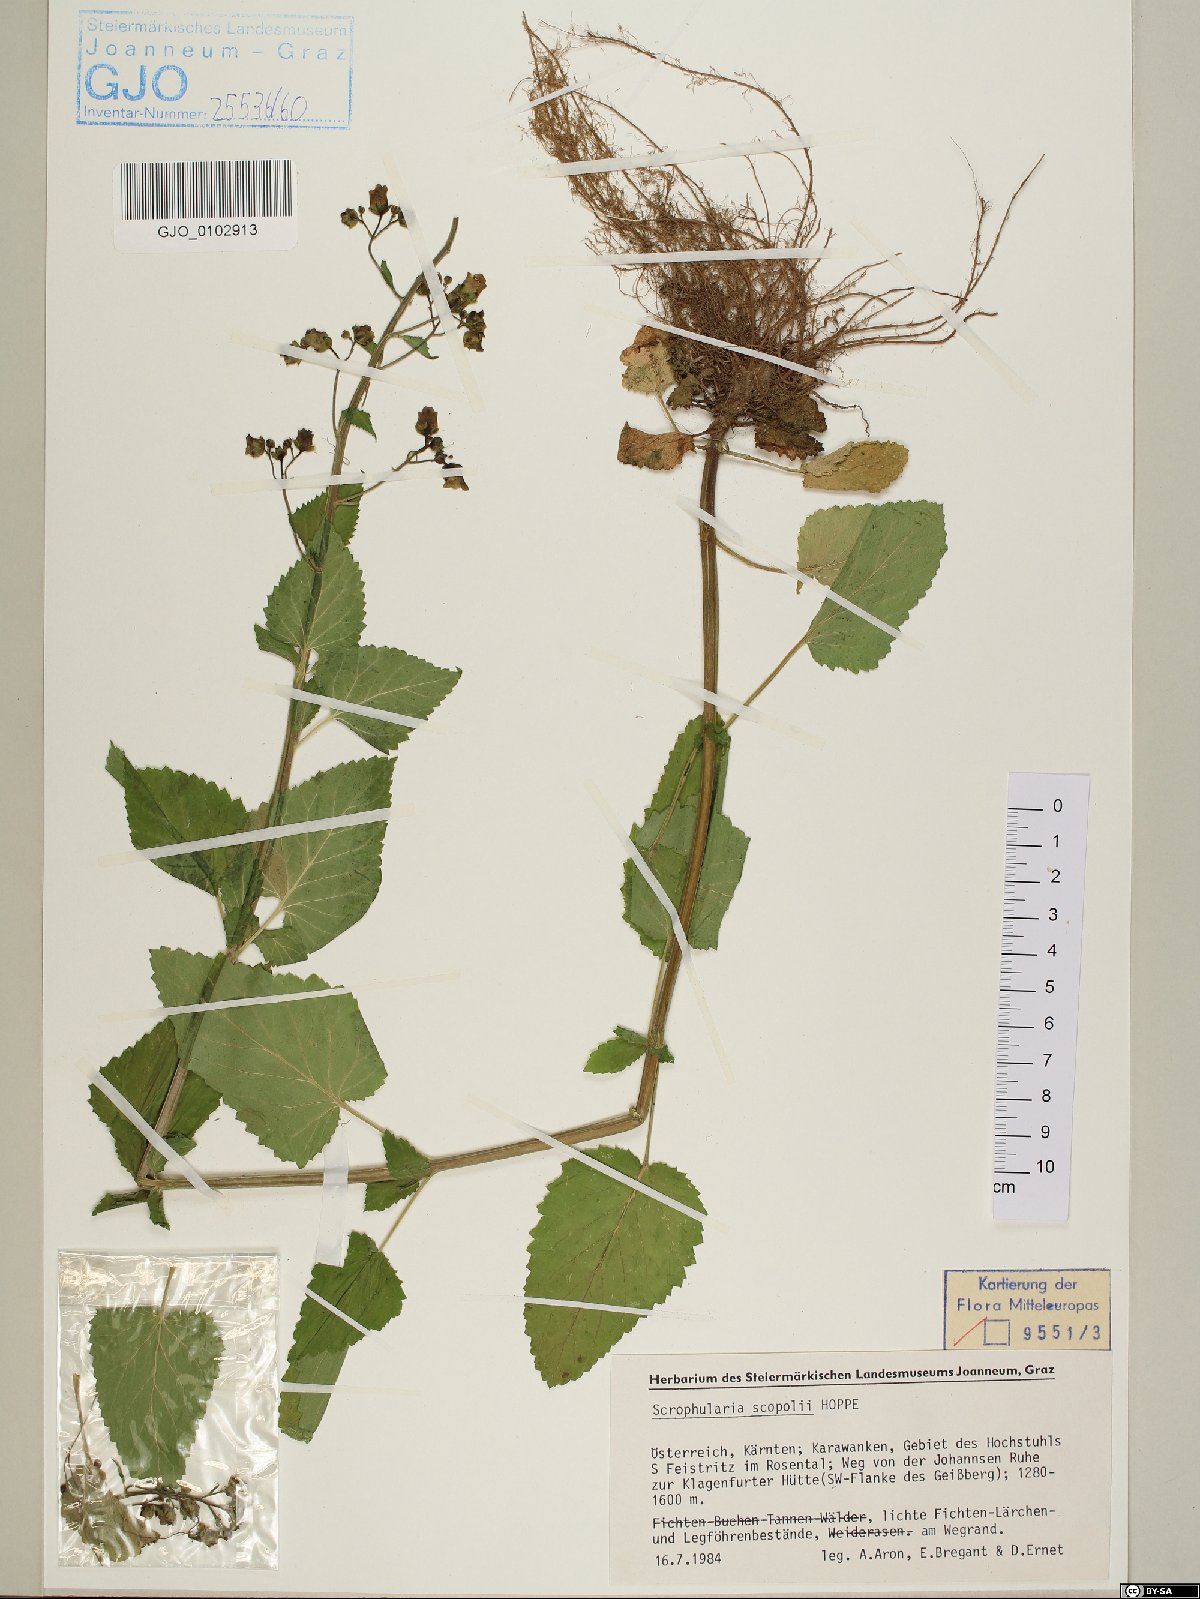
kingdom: Plantae
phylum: Tracheophyta
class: Magnoliopsida
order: Lamiales
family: Scrophulariaceae
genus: Scrophularia
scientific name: Scrophularia scopolii
